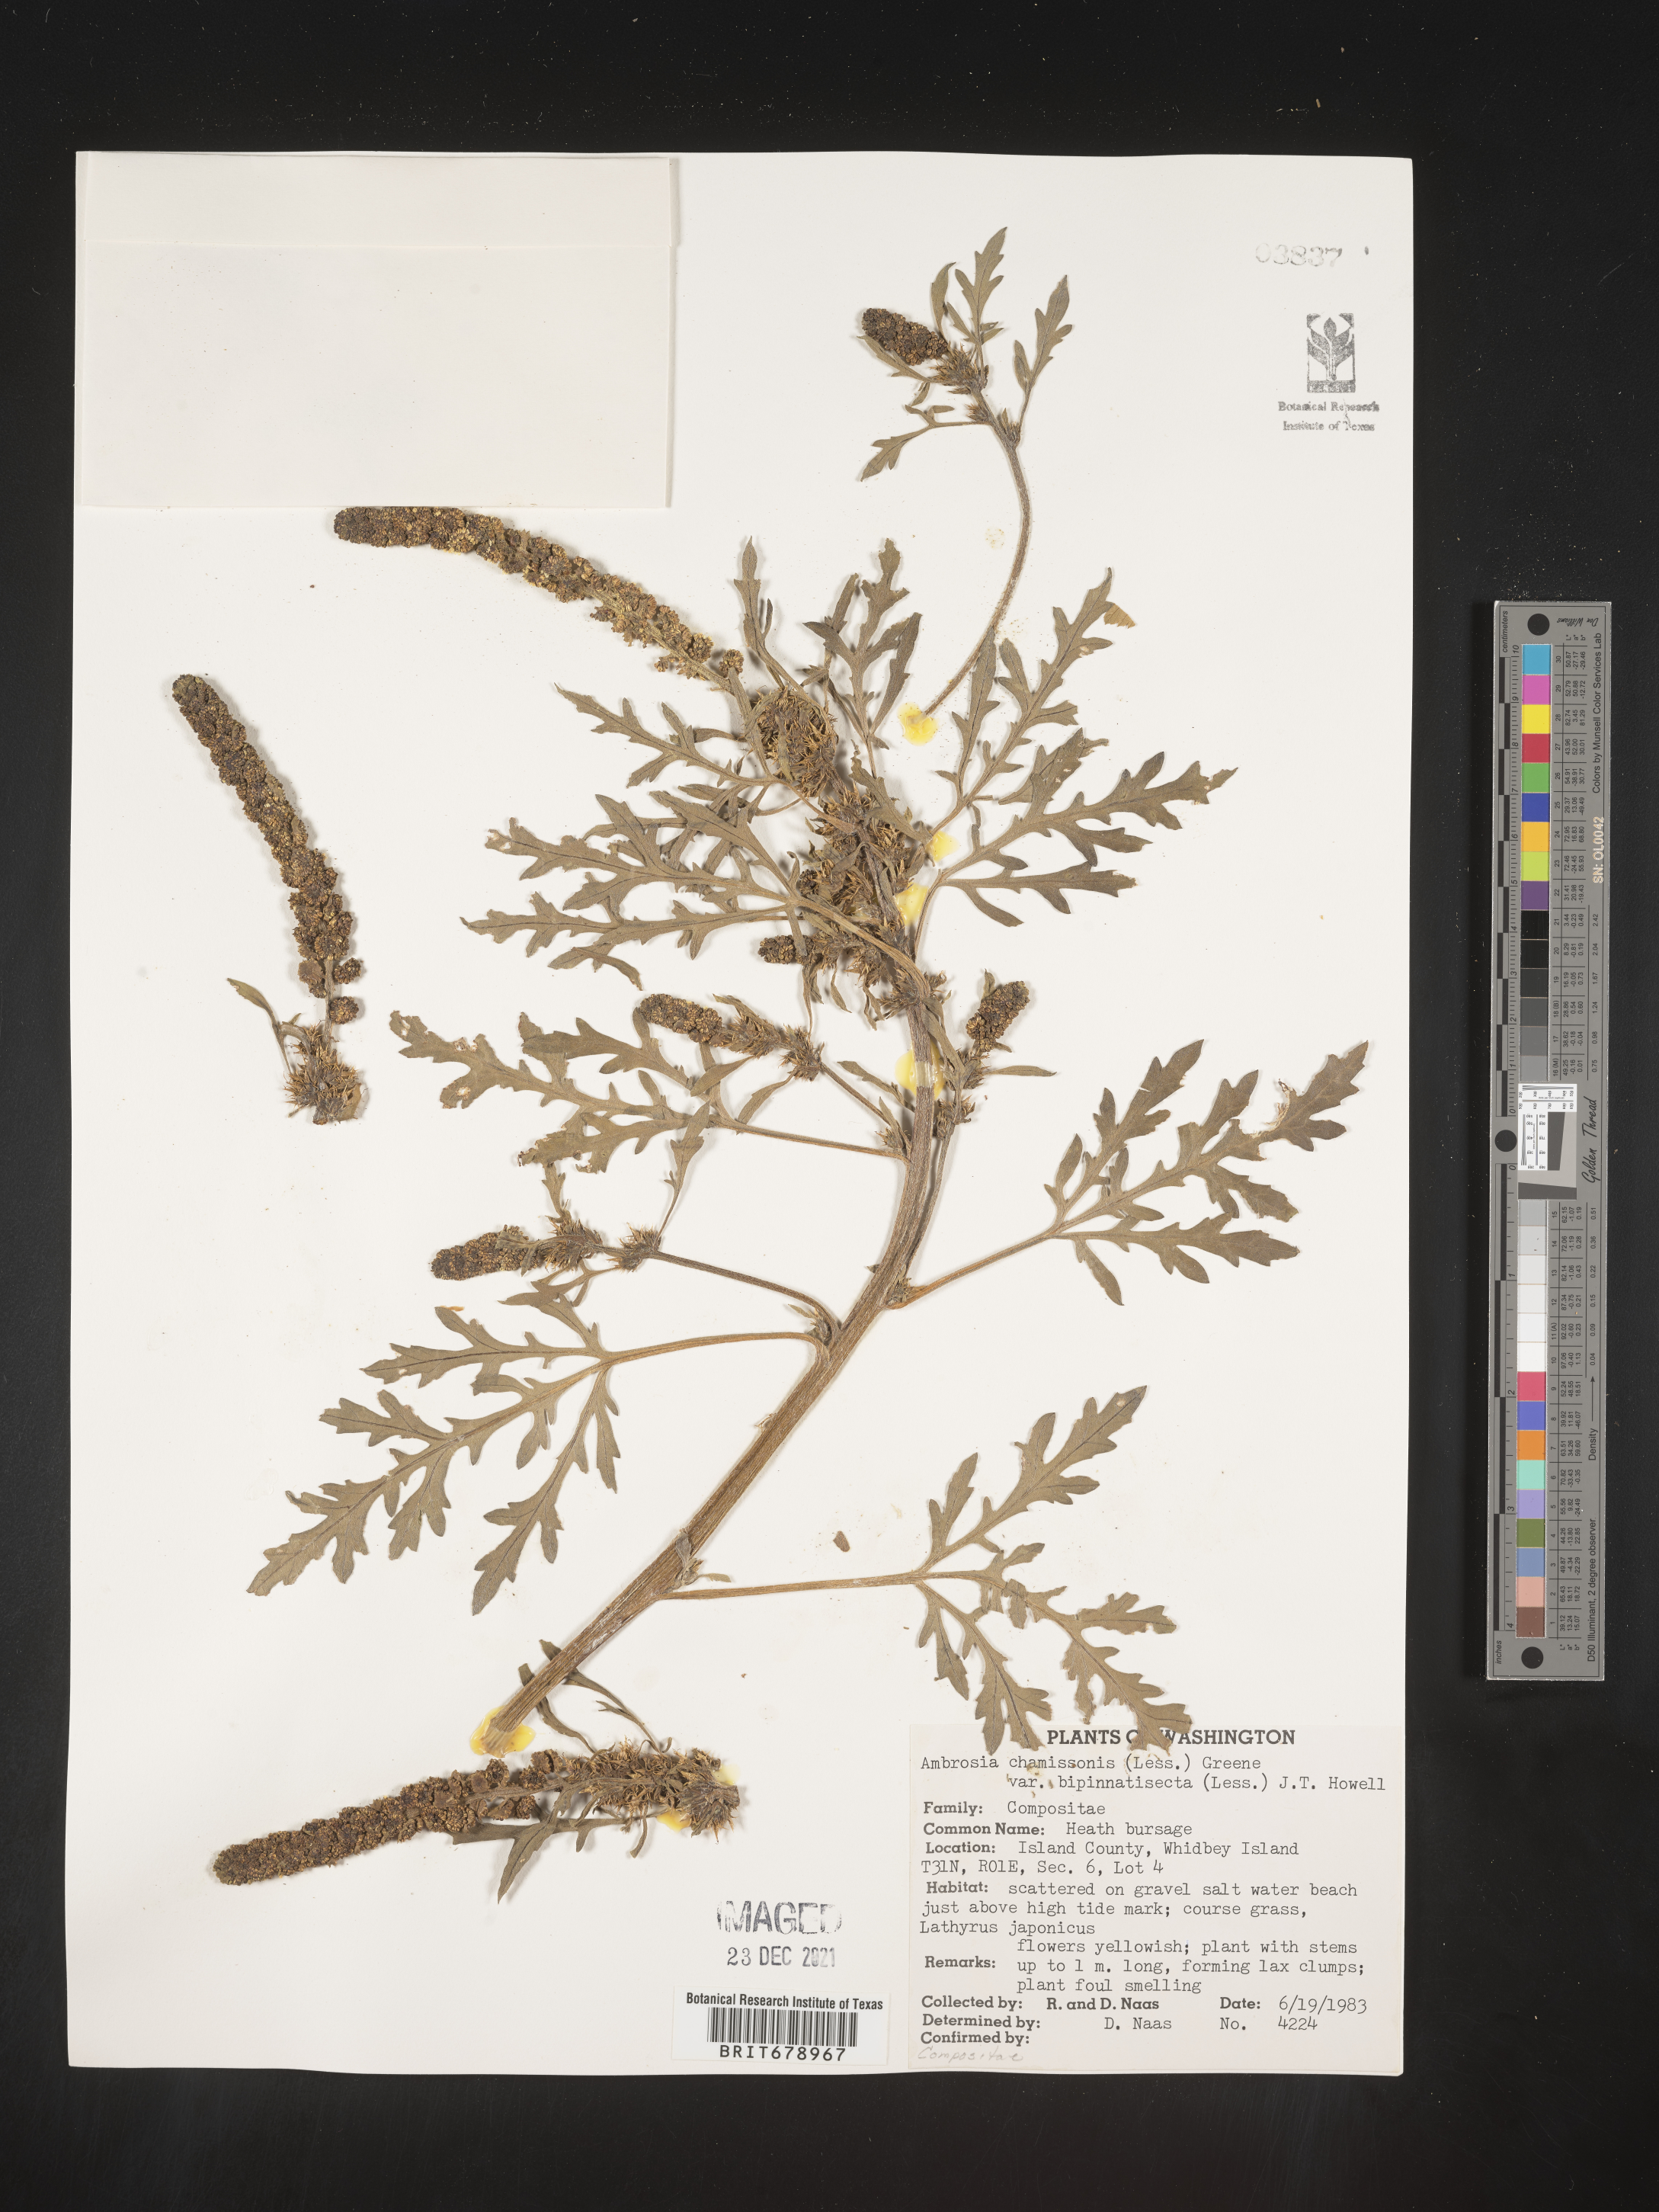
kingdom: Plantae
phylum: Tracheophyta
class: Magnoliopsida
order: Asterales
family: Asteraceae
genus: Ambrosia
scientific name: Ambrosia chamissonis
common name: Beachbur
